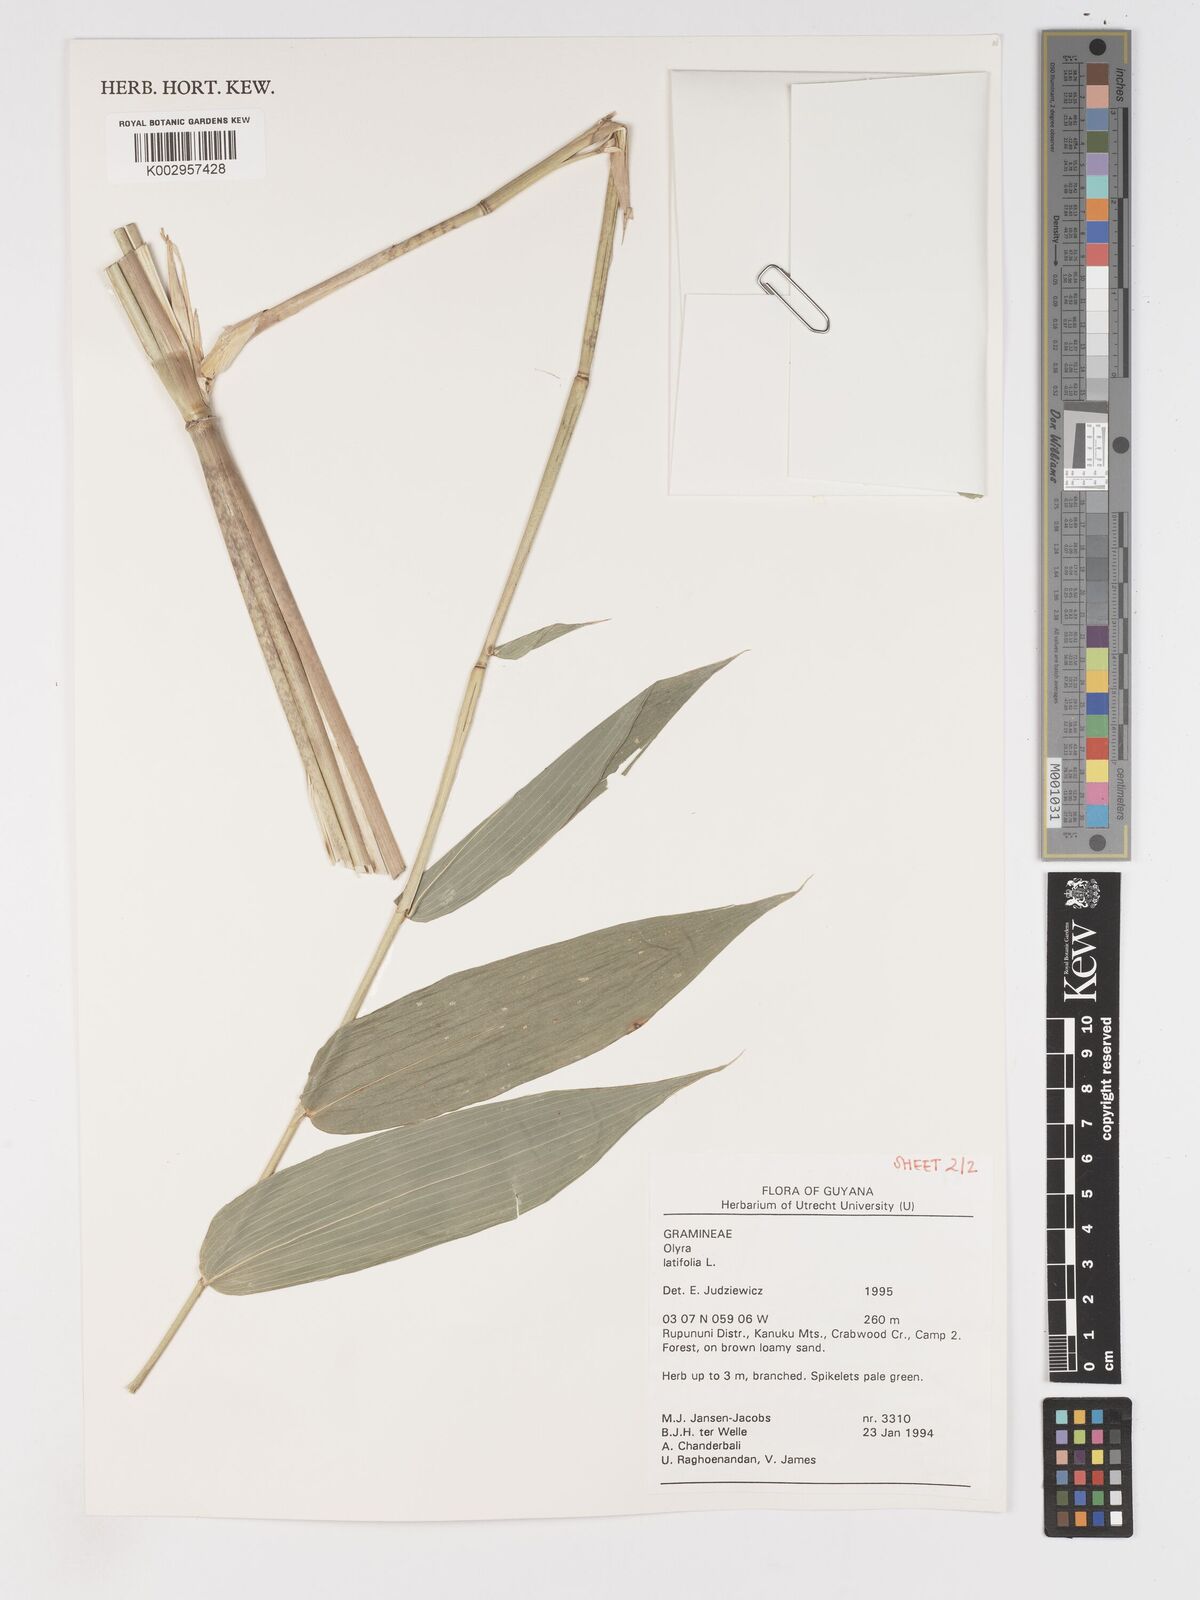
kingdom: Plantae
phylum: Tracheophyta
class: Liliopsida
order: Poales
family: Poaceae
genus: Olyra
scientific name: Olyra latifolia
